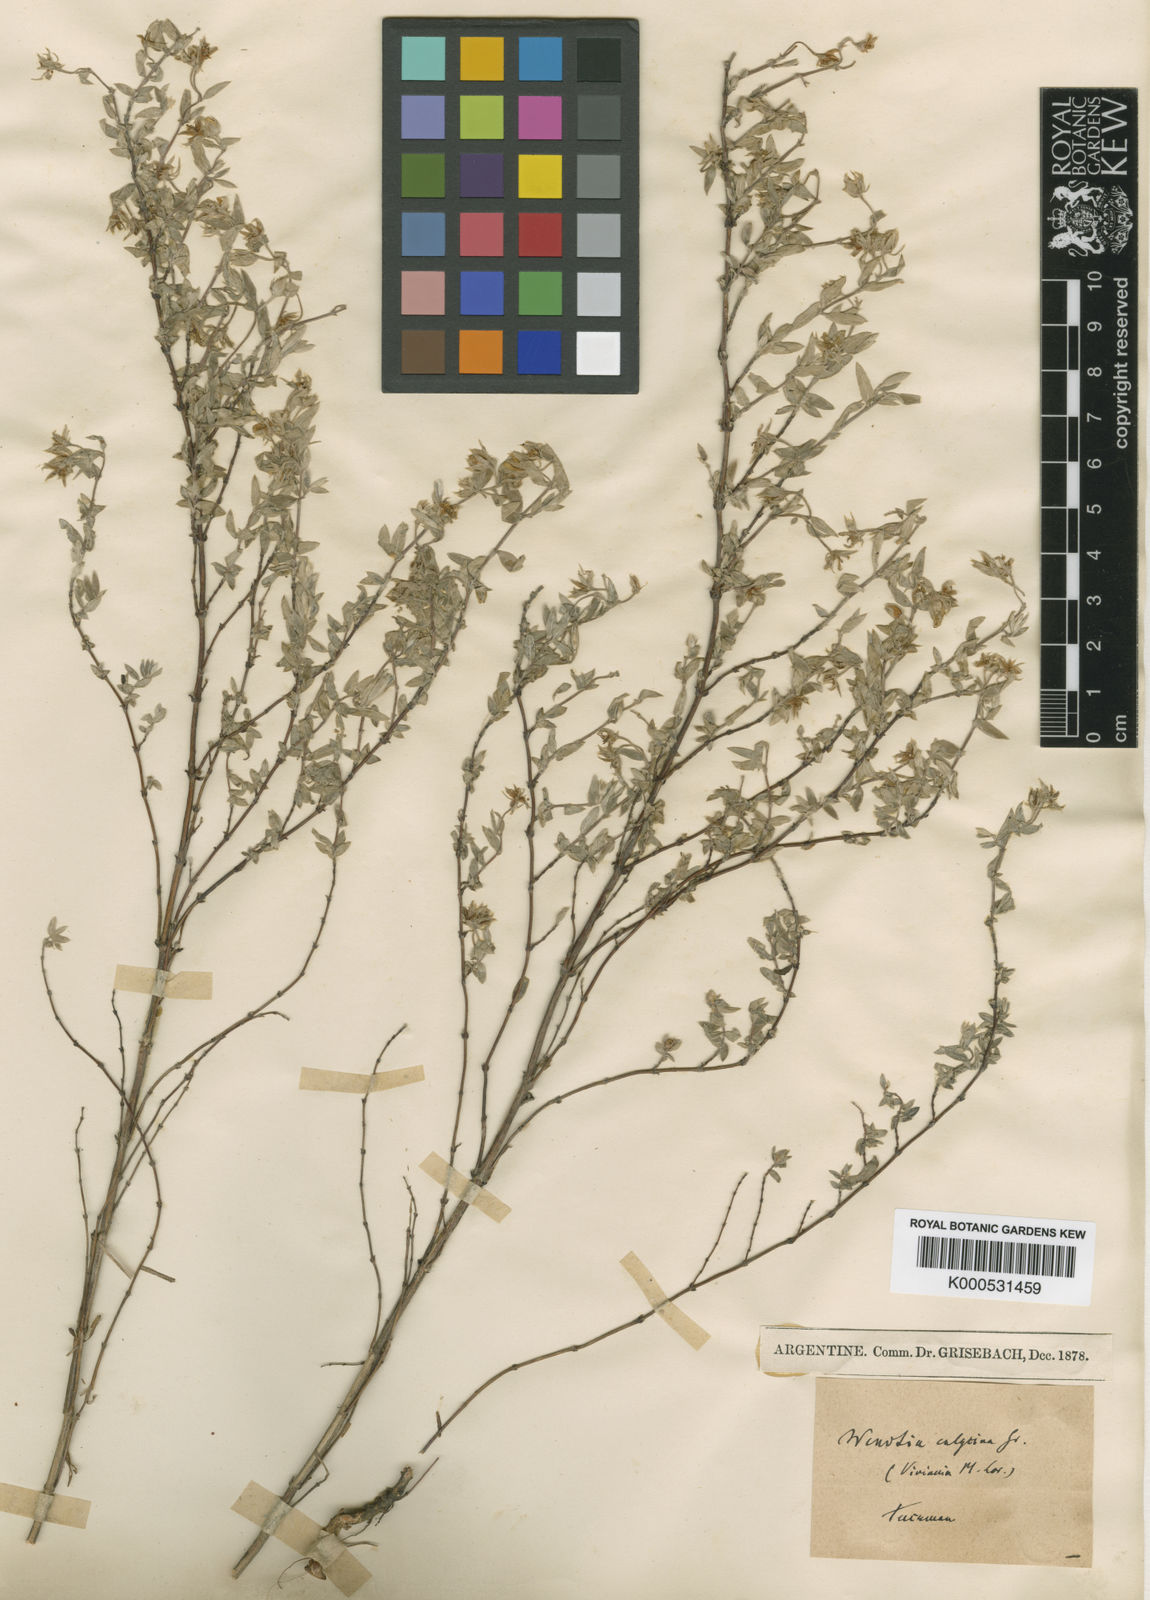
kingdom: Plantae
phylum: Tracheophyta
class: Magnoliopsida
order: Geraniales
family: Vivianiaceae
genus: Wendtia
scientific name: Wendtia calycina
